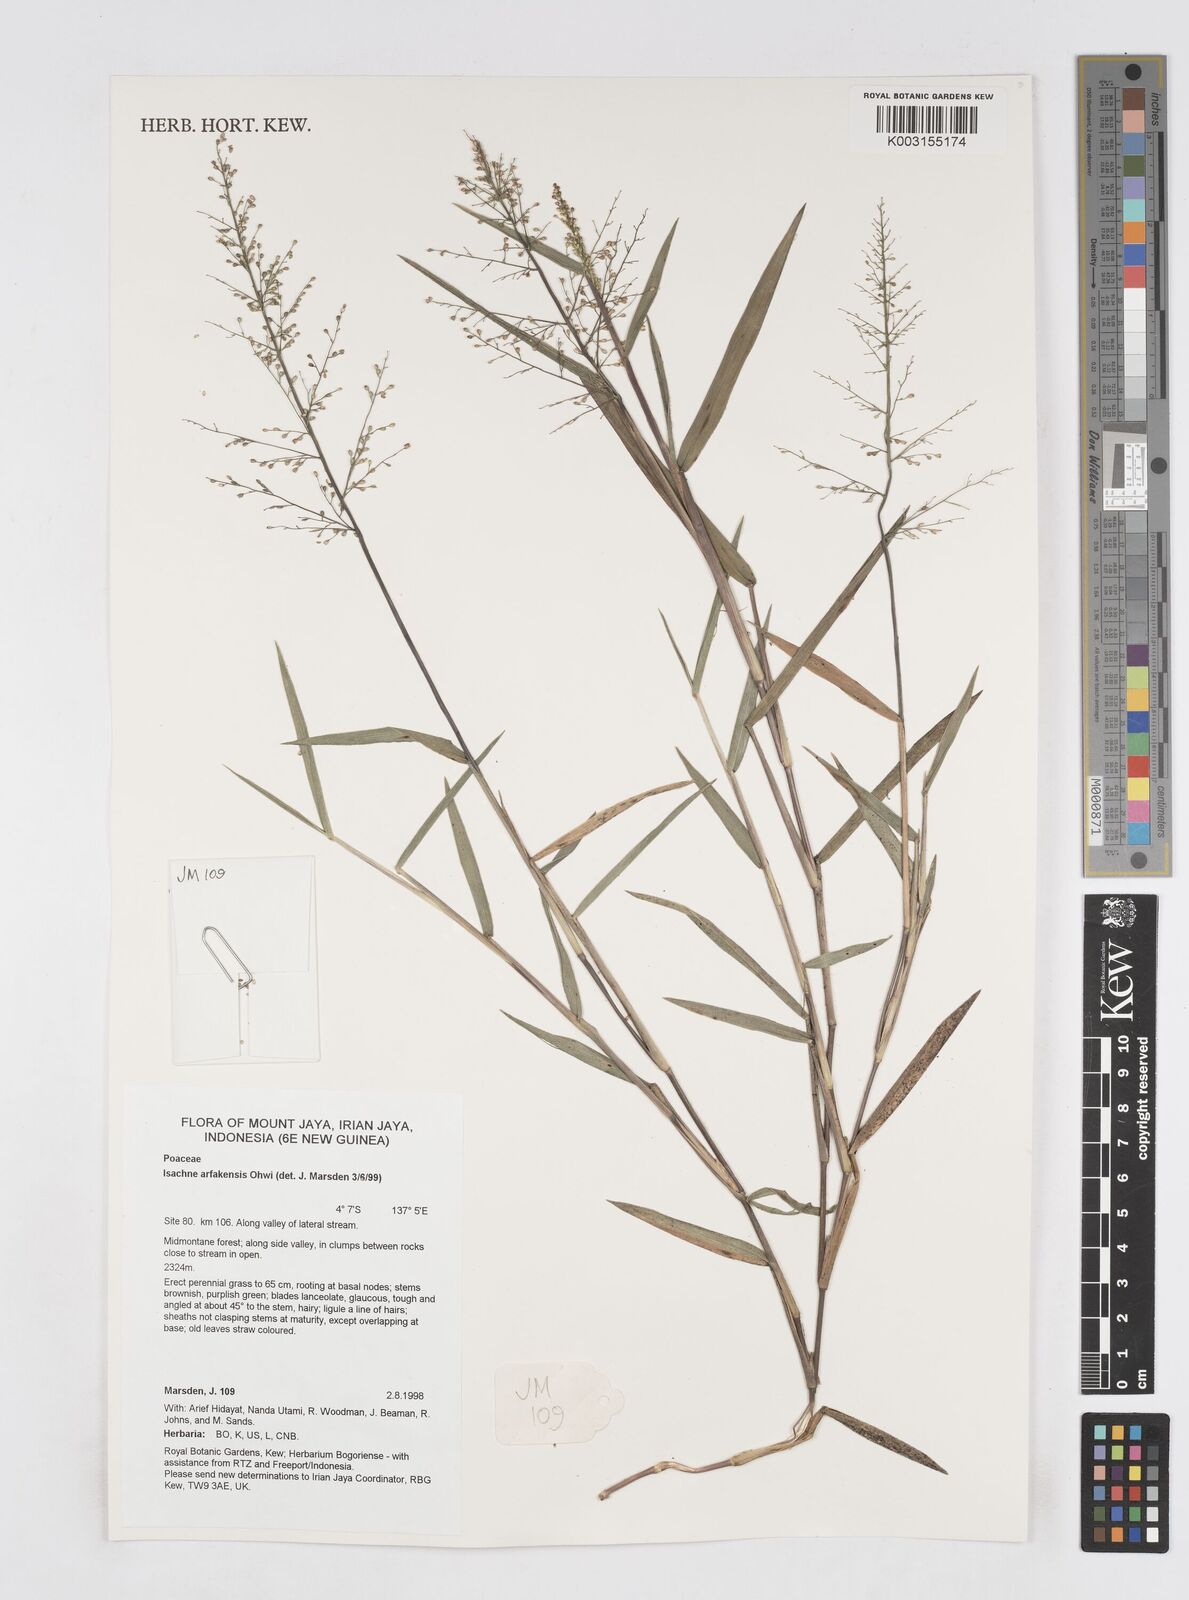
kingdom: Plantae
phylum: Tracheophyta
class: Liliopsida
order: Poales
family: Poaceae
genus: Isachne
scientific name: Isachne arfakensis
